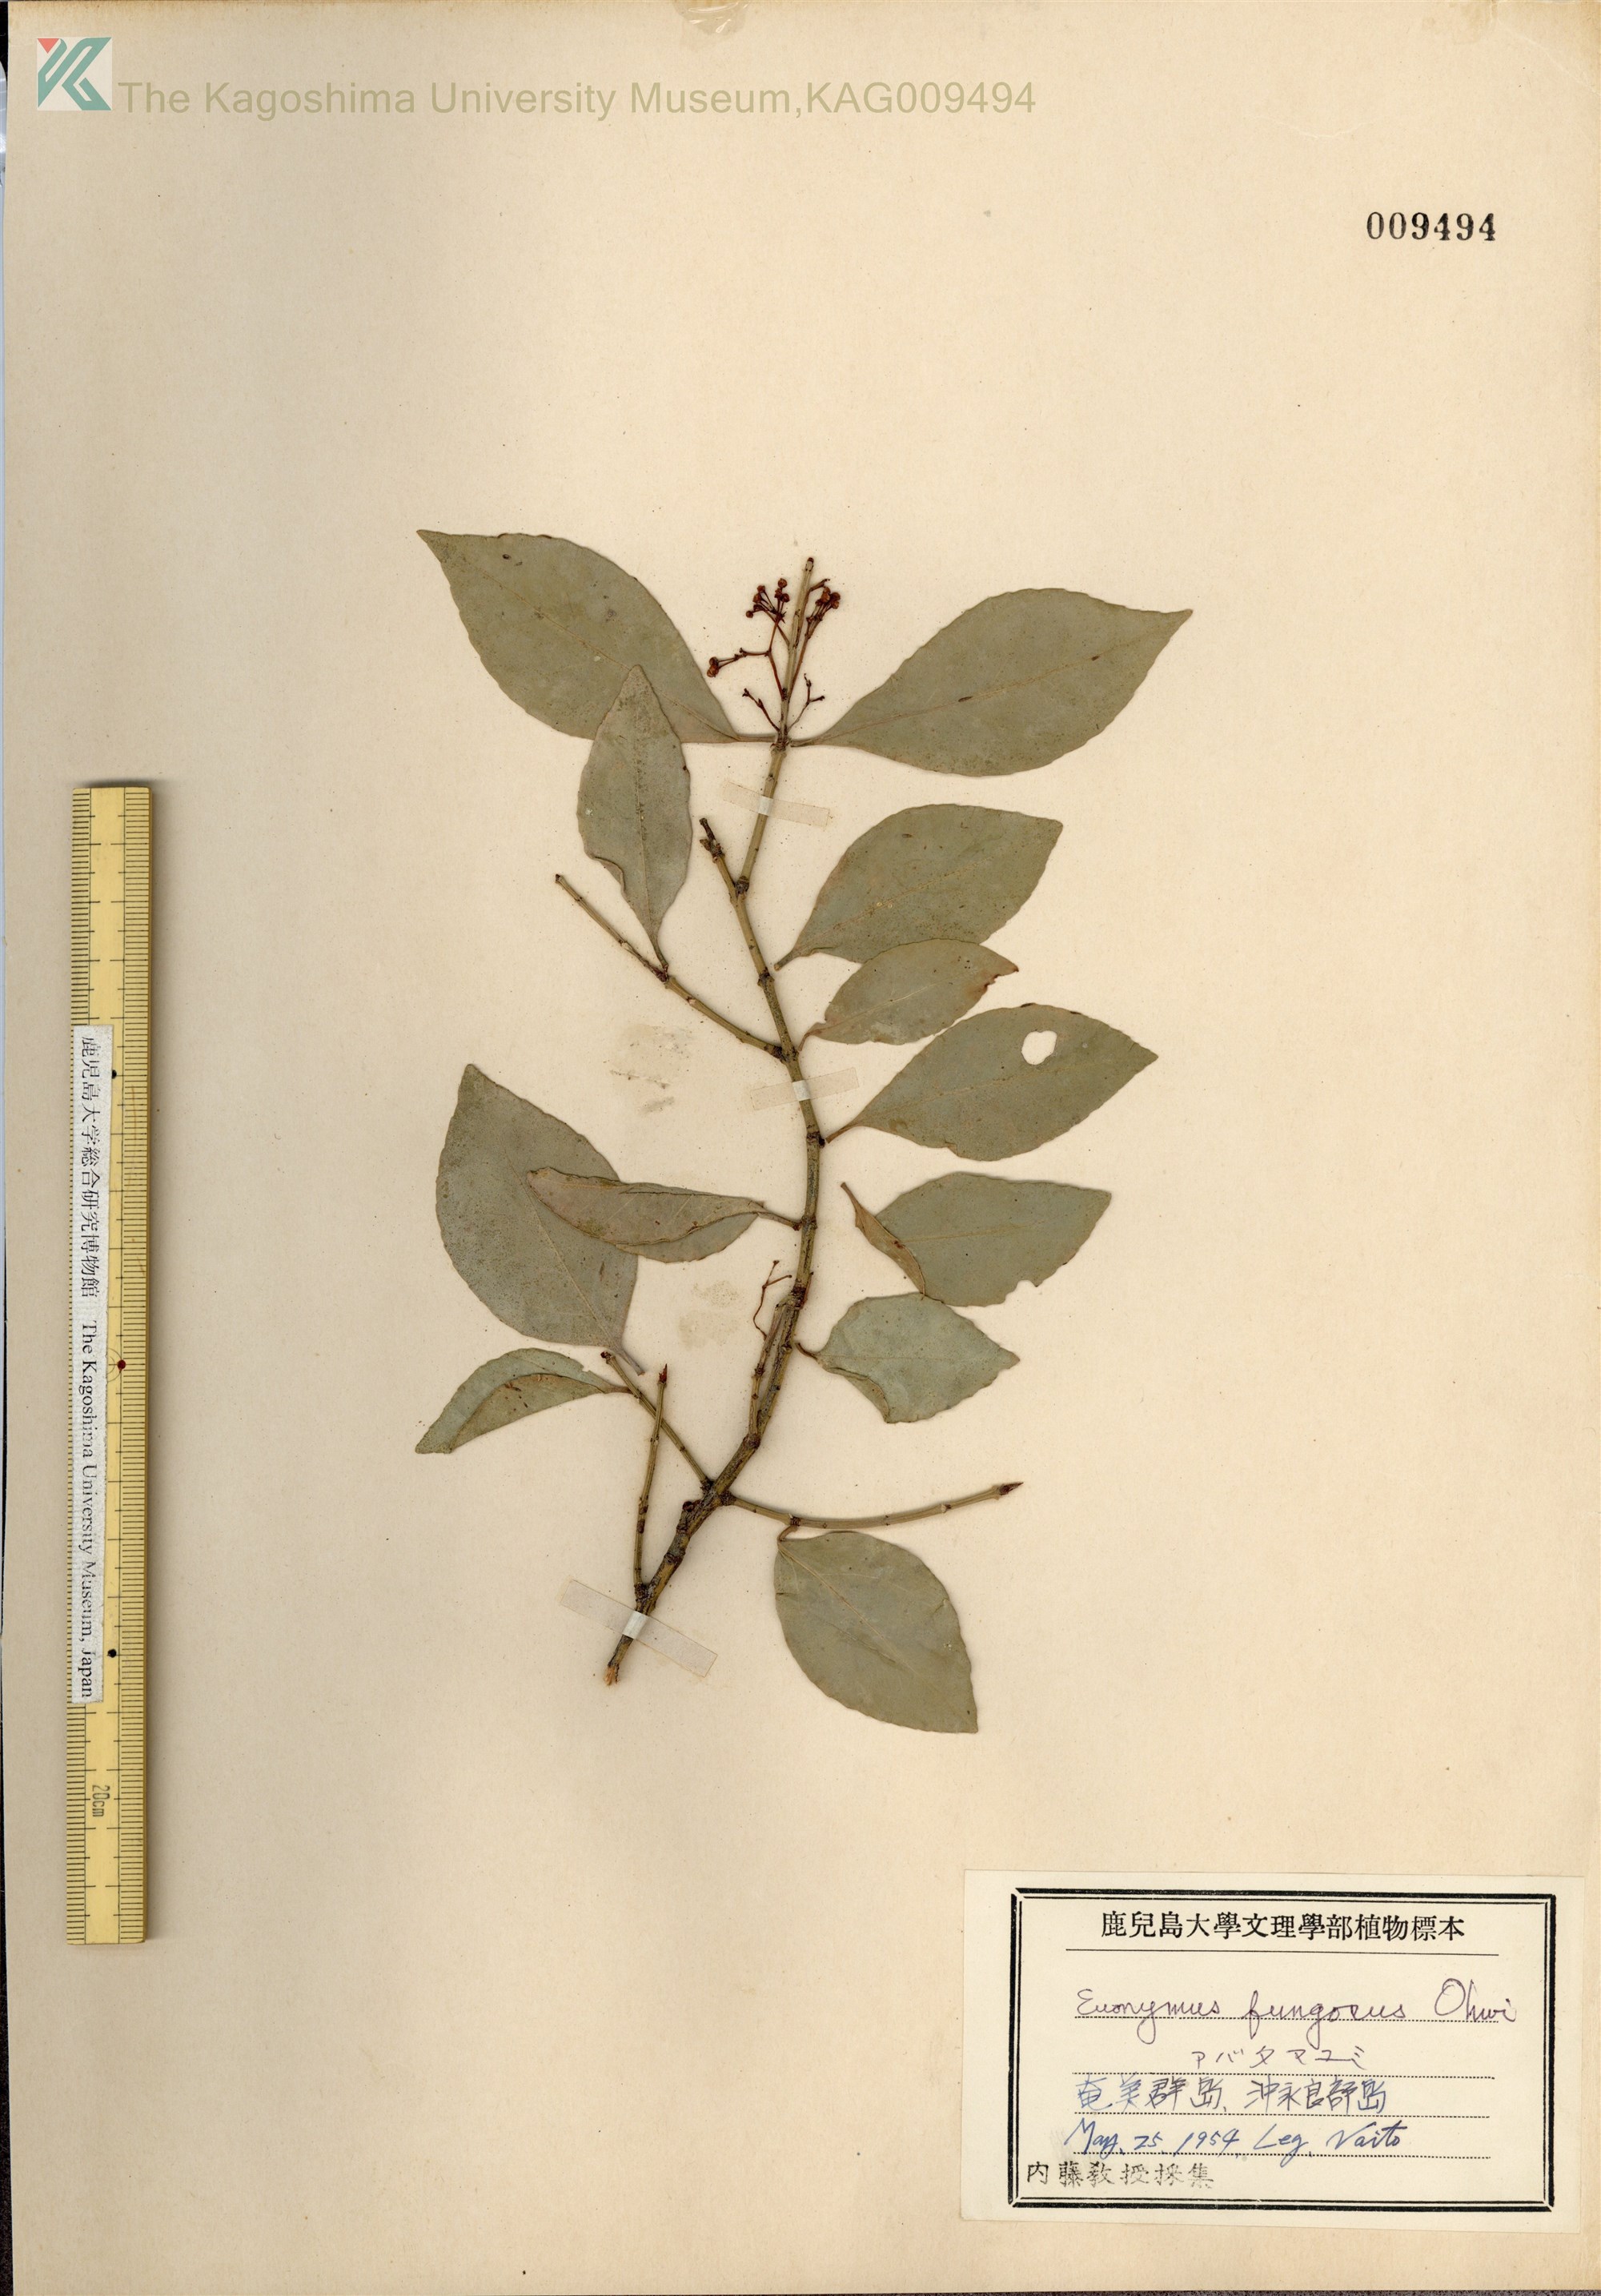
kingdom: Plantae
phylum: Tracheophyta
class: Magnoliopsida
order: Celastrales
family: Celastraceae
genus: Euonymus
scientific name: Euonymus echinatus
